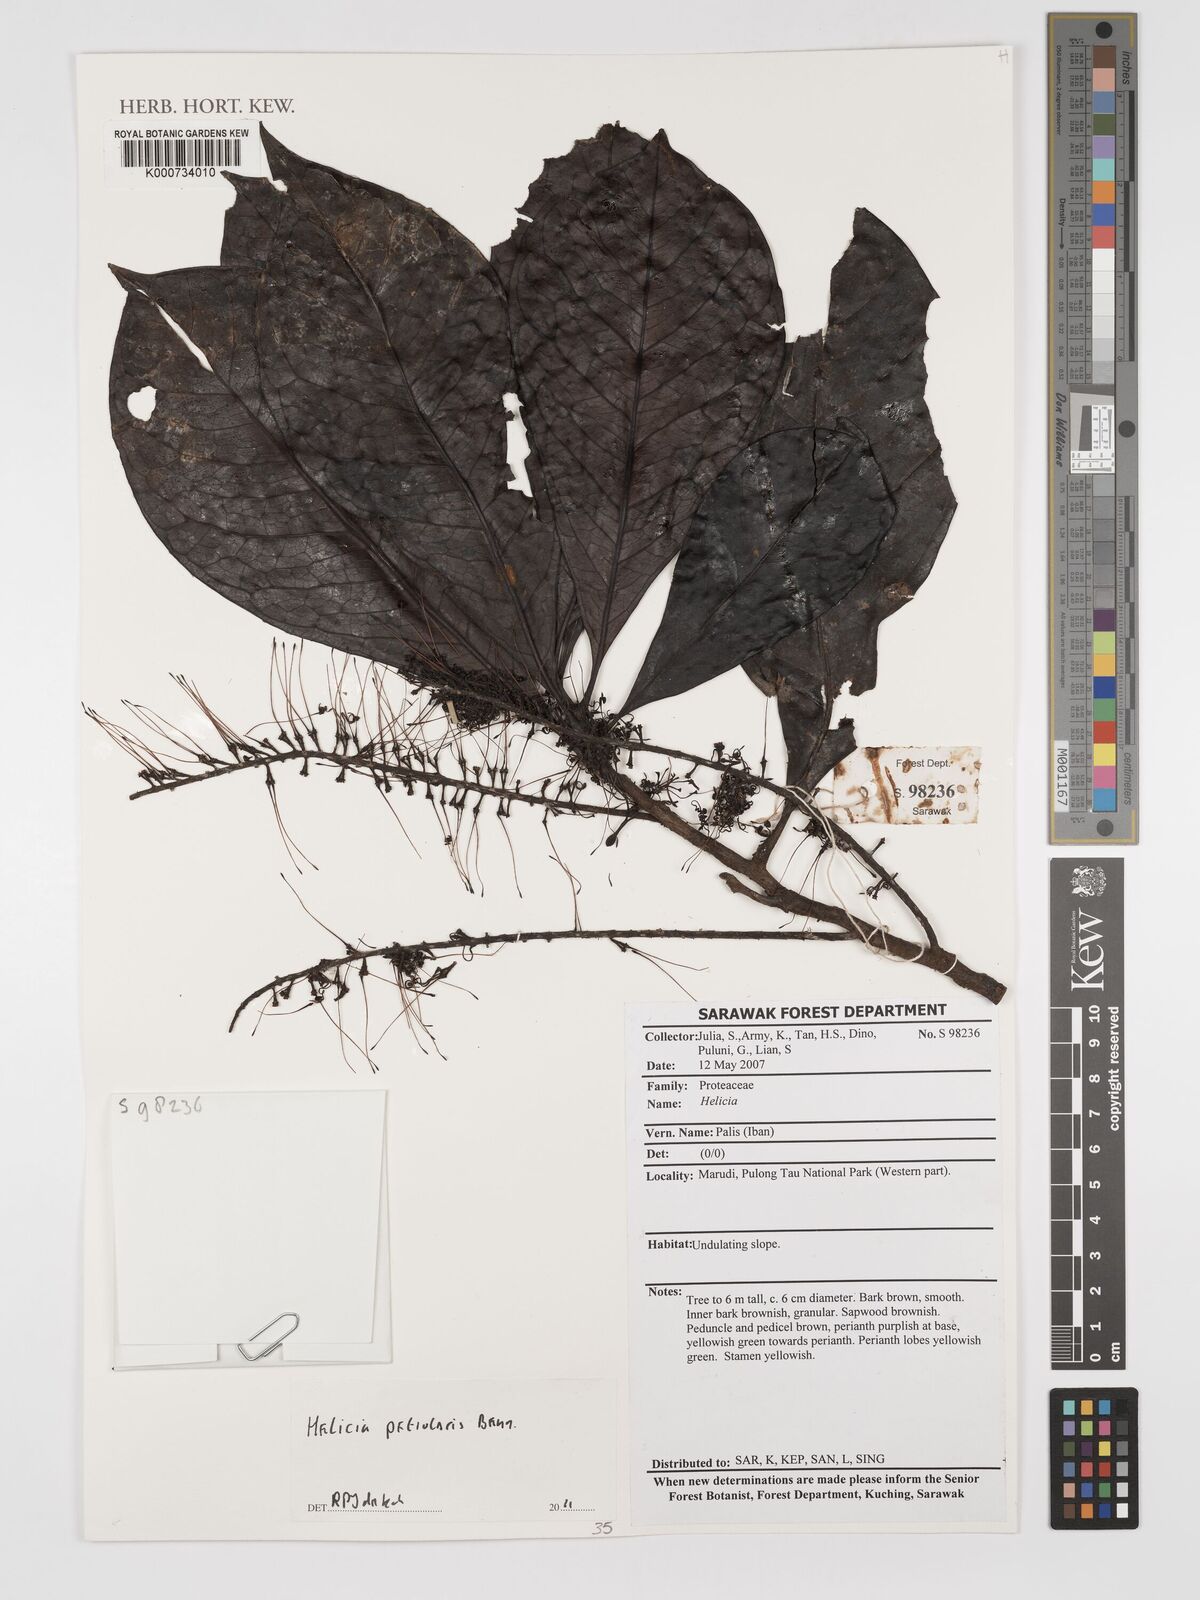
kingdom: Plantae
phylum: Tracheophyta
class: Magnoliopsida
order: Proteales
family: Proteaceae
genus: Helicia
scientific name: Helicia petiolaris
